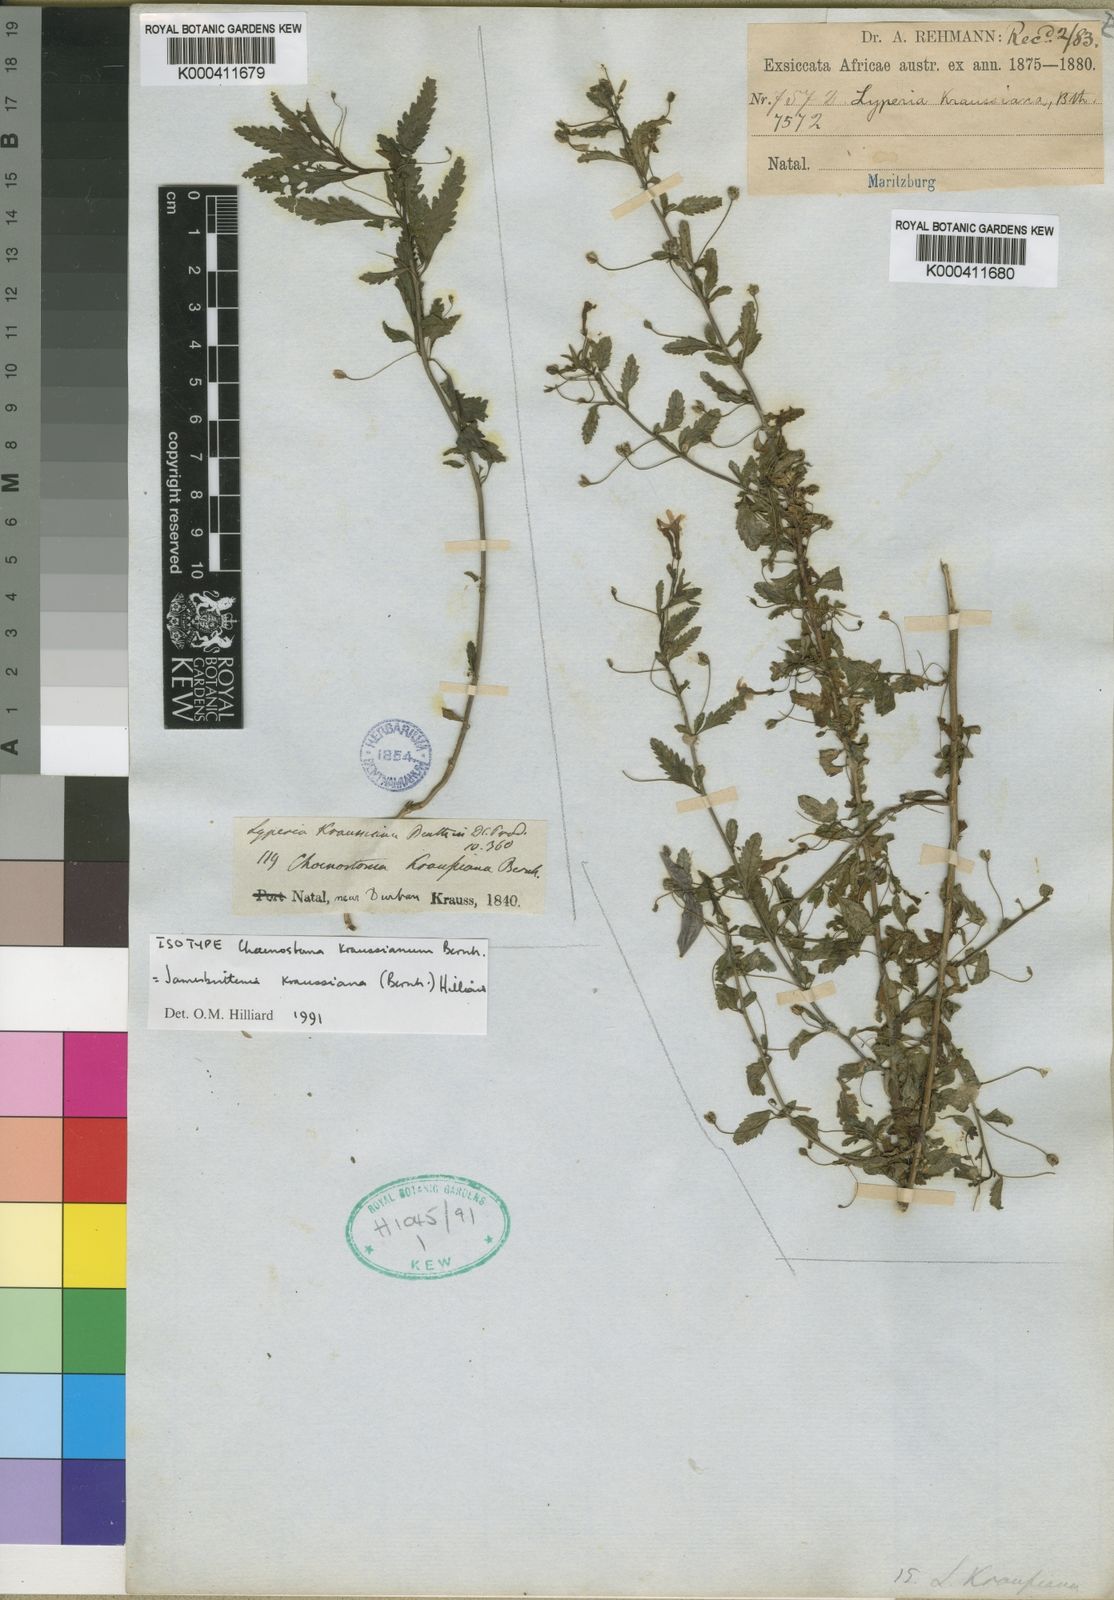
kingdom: Plantae
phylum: Tracheophyta
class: Magnoliopsida
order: Lamiales
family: Scrophulariaceae
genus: Jamesbrittenia
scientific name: Jamesbrittenia kraussiana
